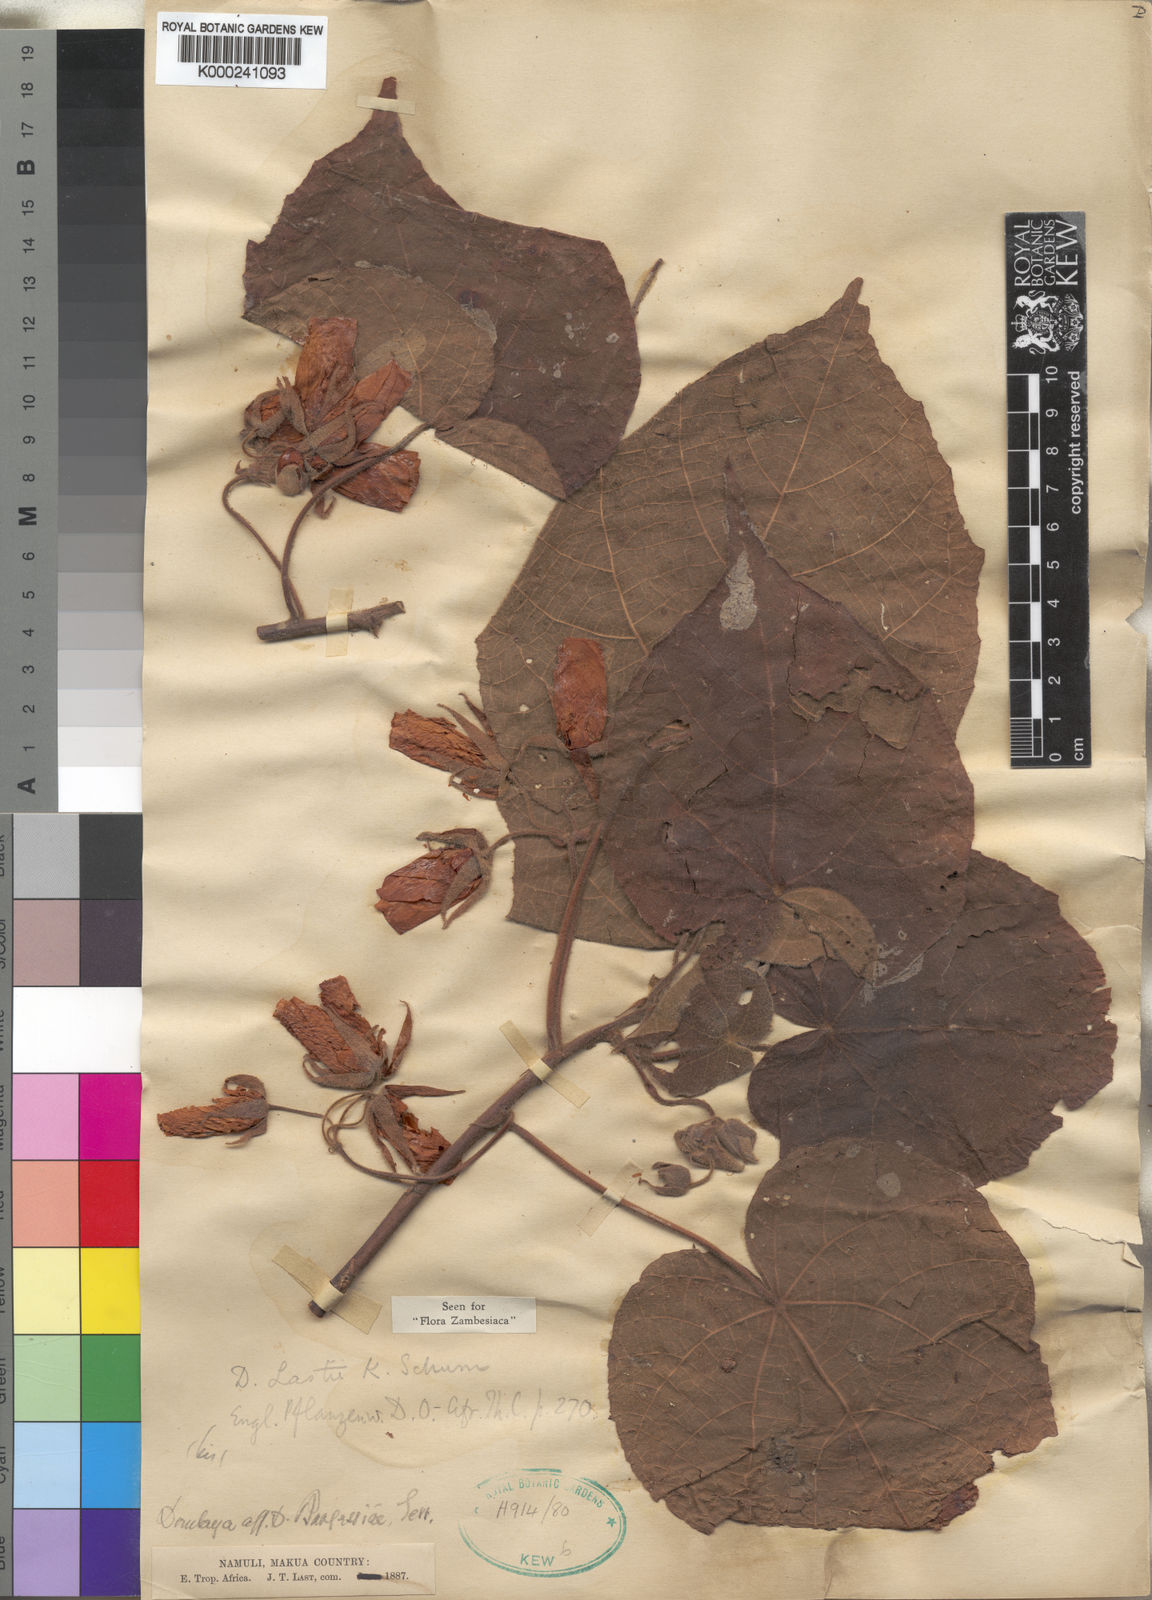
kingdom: Plantae
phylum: Tracheophyta
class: Magnoliopsida
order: Malvales
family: Malvaceae
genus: Dombeya
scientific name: Dombeya lastii
